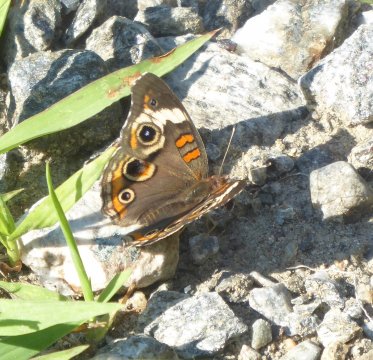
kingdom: Animalia
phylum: Arthropoda
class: Insecta
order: Lepidoptera
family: Nymphalidae
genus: Junonia
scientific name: Junonia coenia
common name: Common Buckeye
